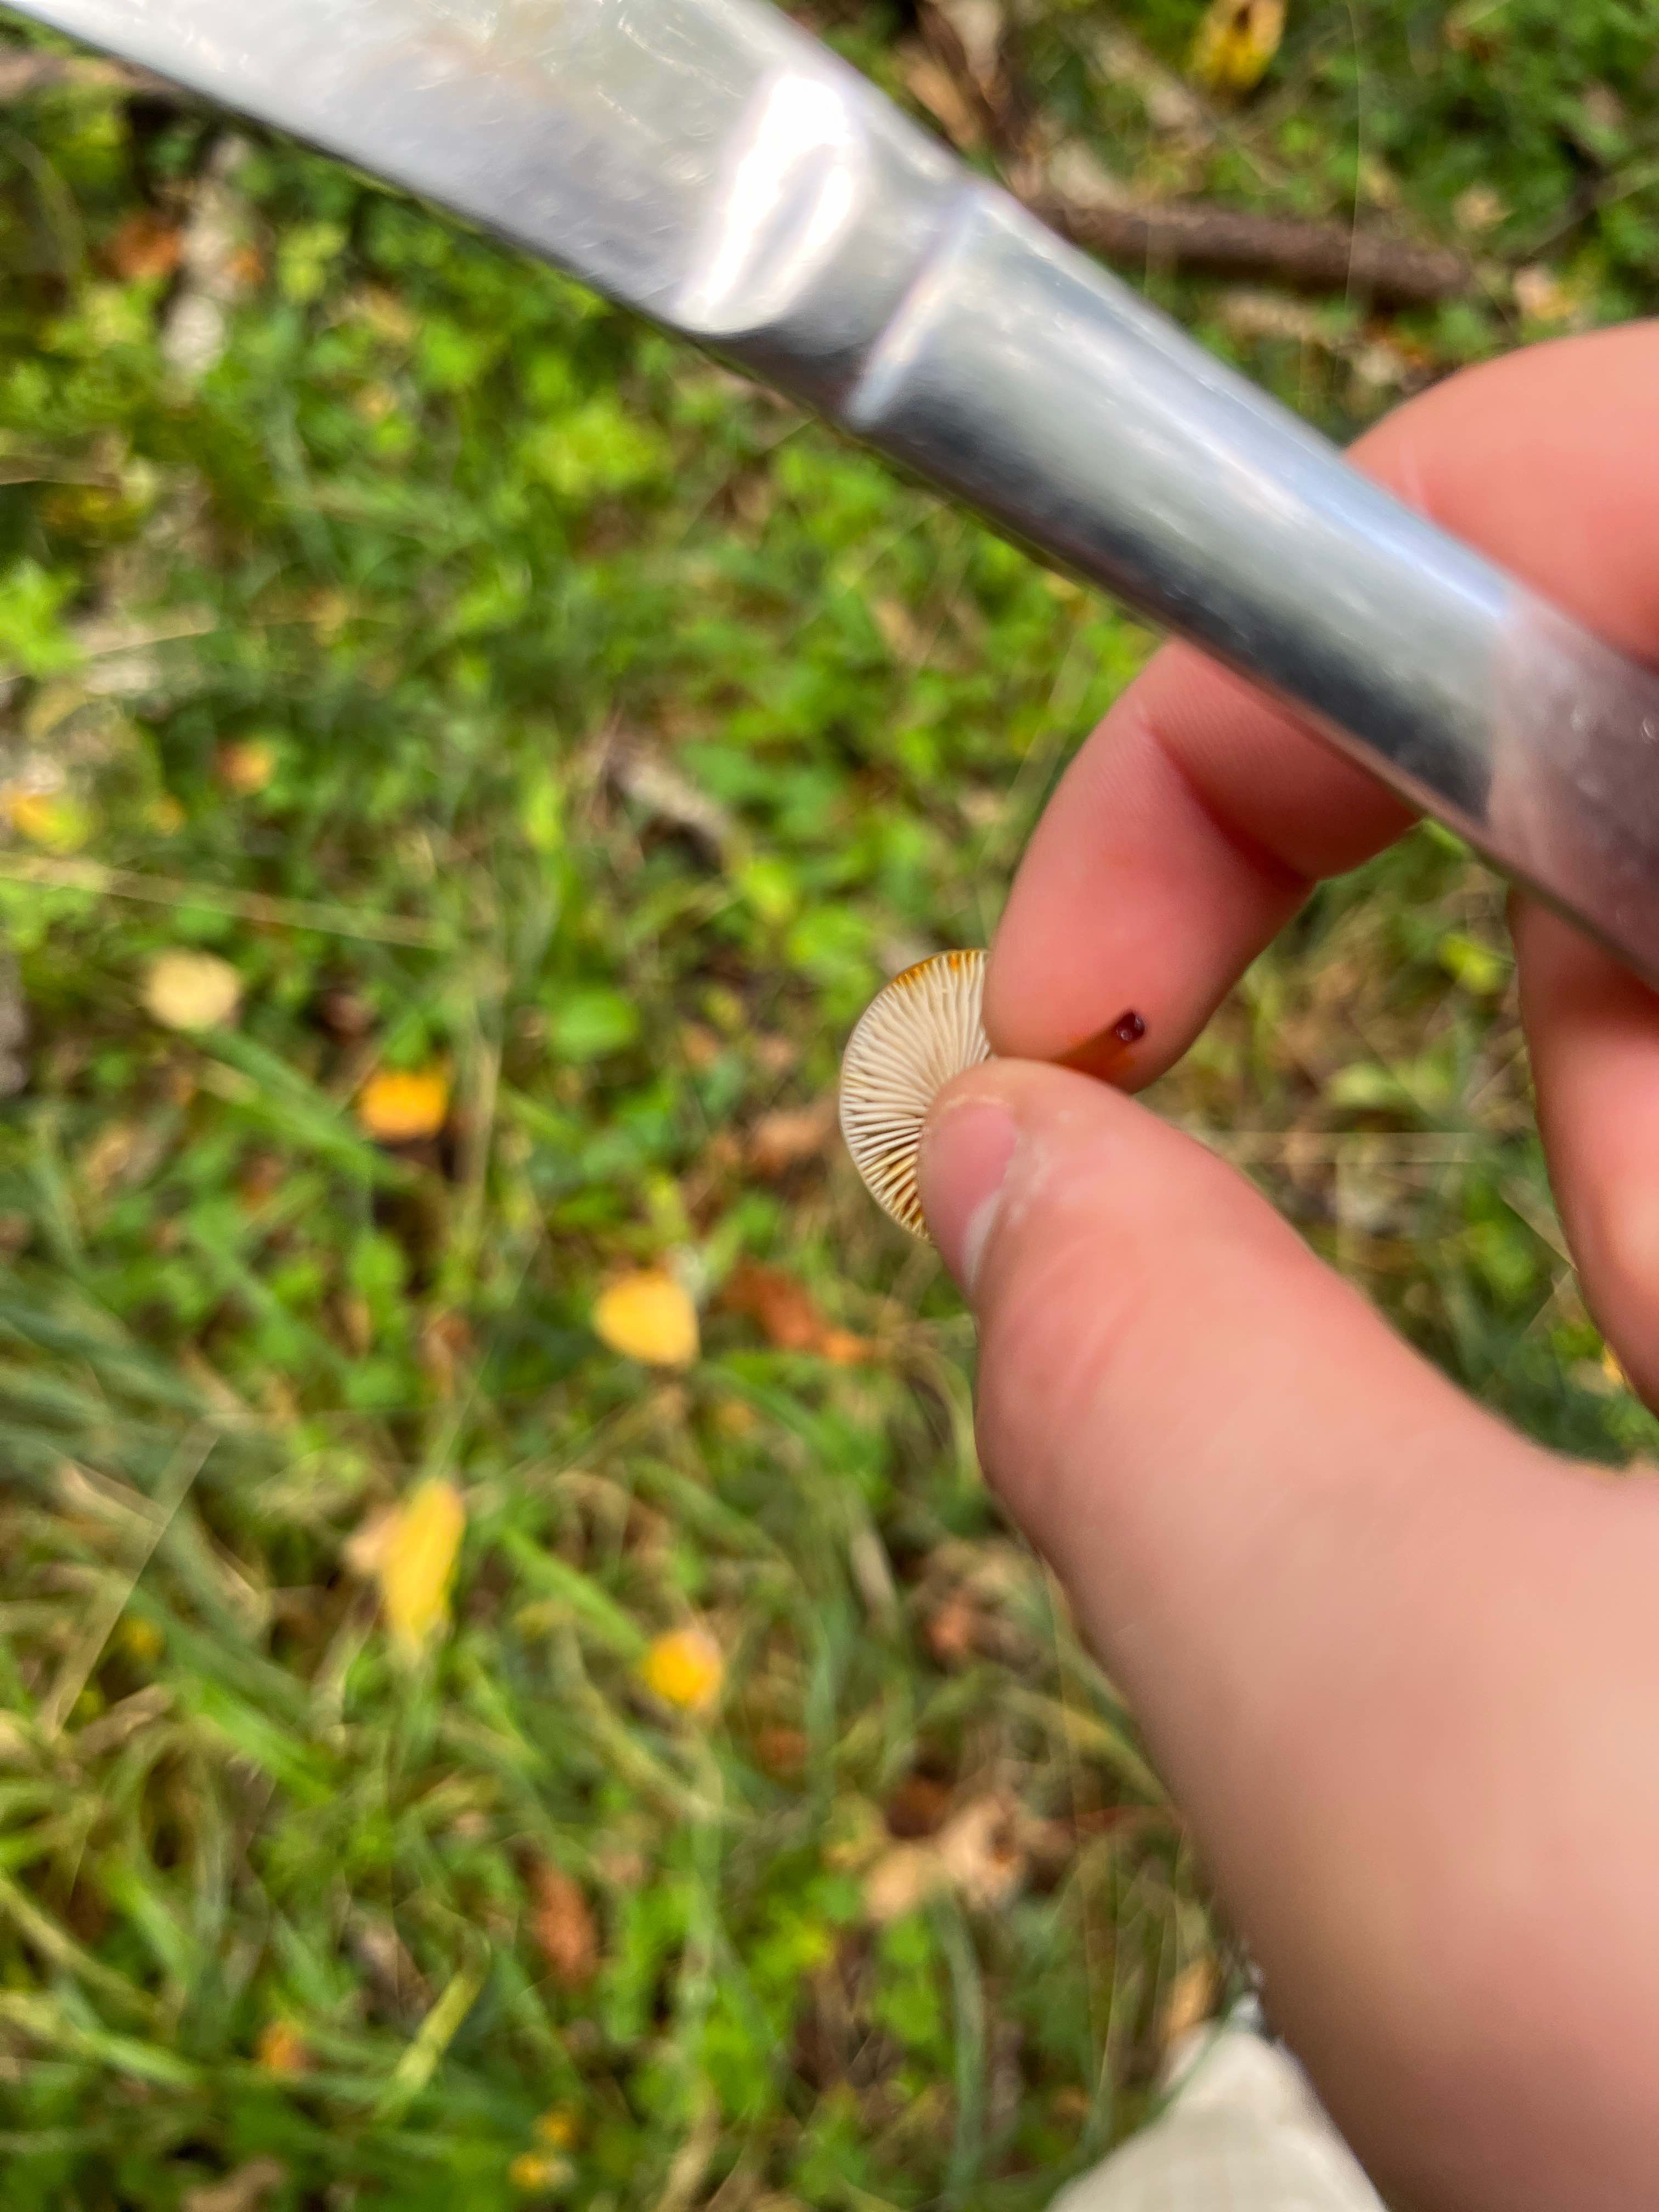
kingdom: Fungi
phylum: Basidiomycota
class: Agaricomycetes
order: Agaricales
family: Mycenaceae
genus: Mycena
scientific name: Mycena crocata
